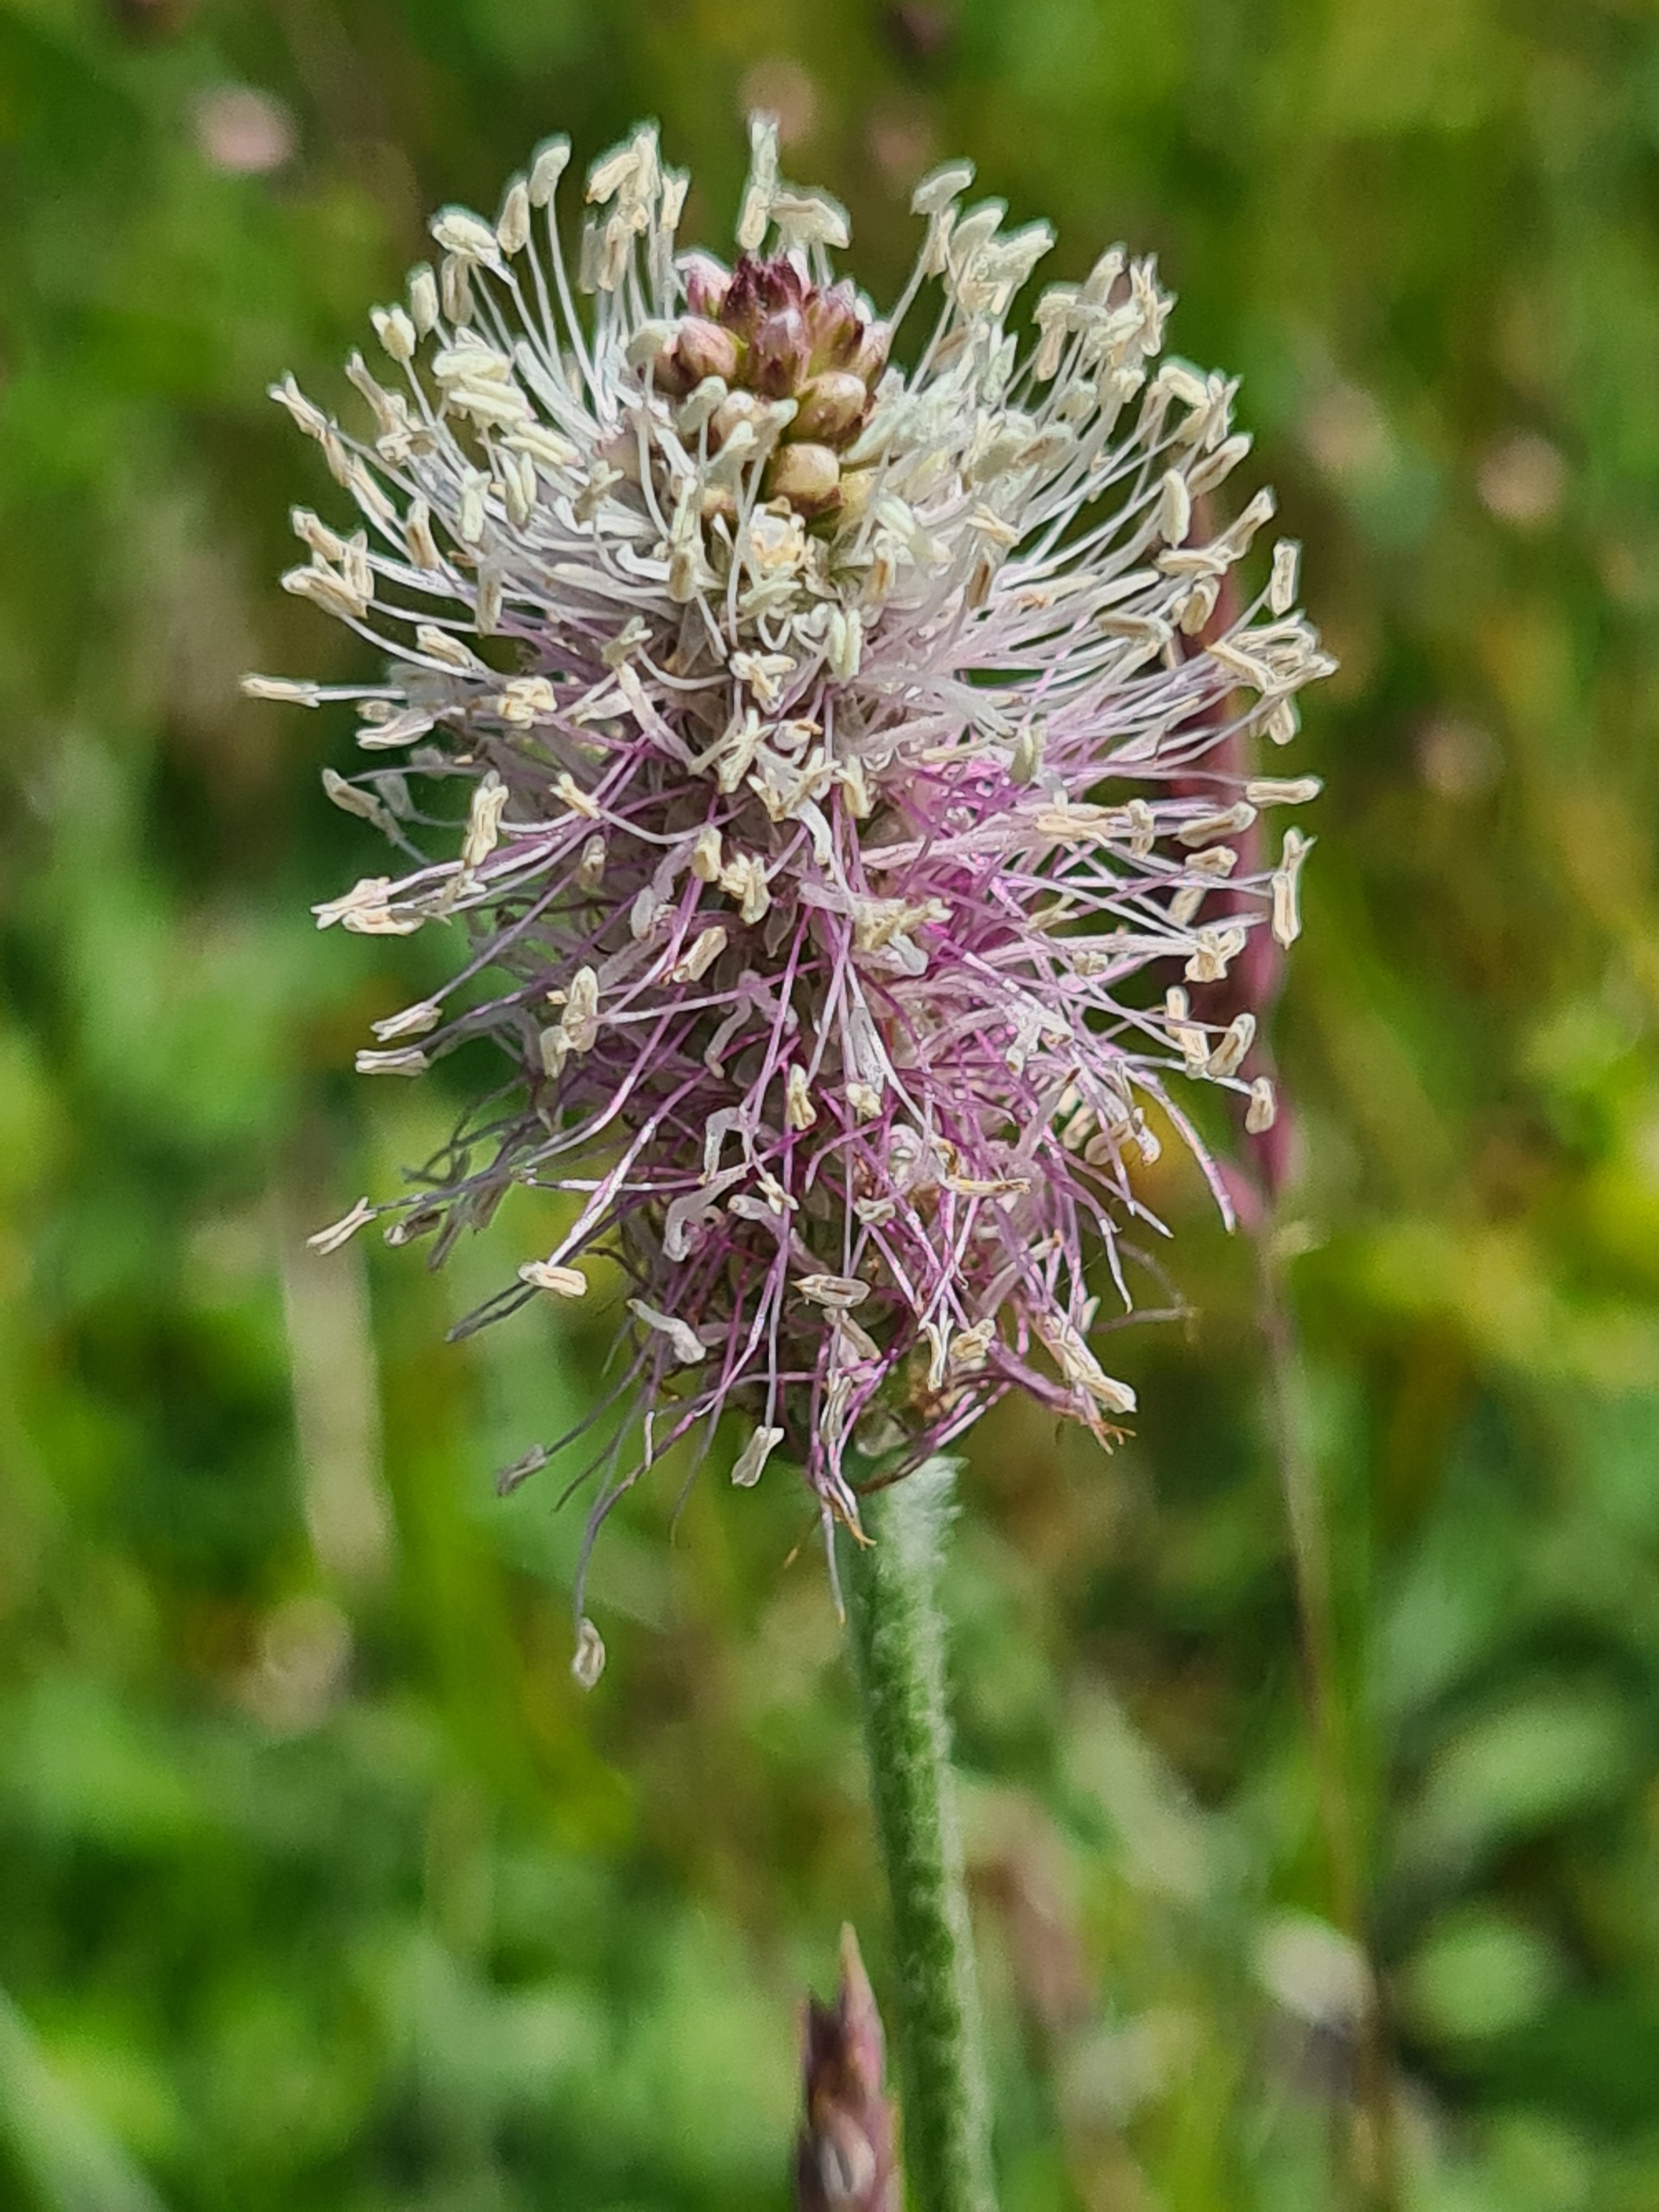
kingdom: Plantae
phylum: Tracheophyta
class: Magnoliopsida
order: Lamiales
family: Plantaginaceae
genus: Plantago
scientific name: Plantago media
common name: Dunet vejbred
